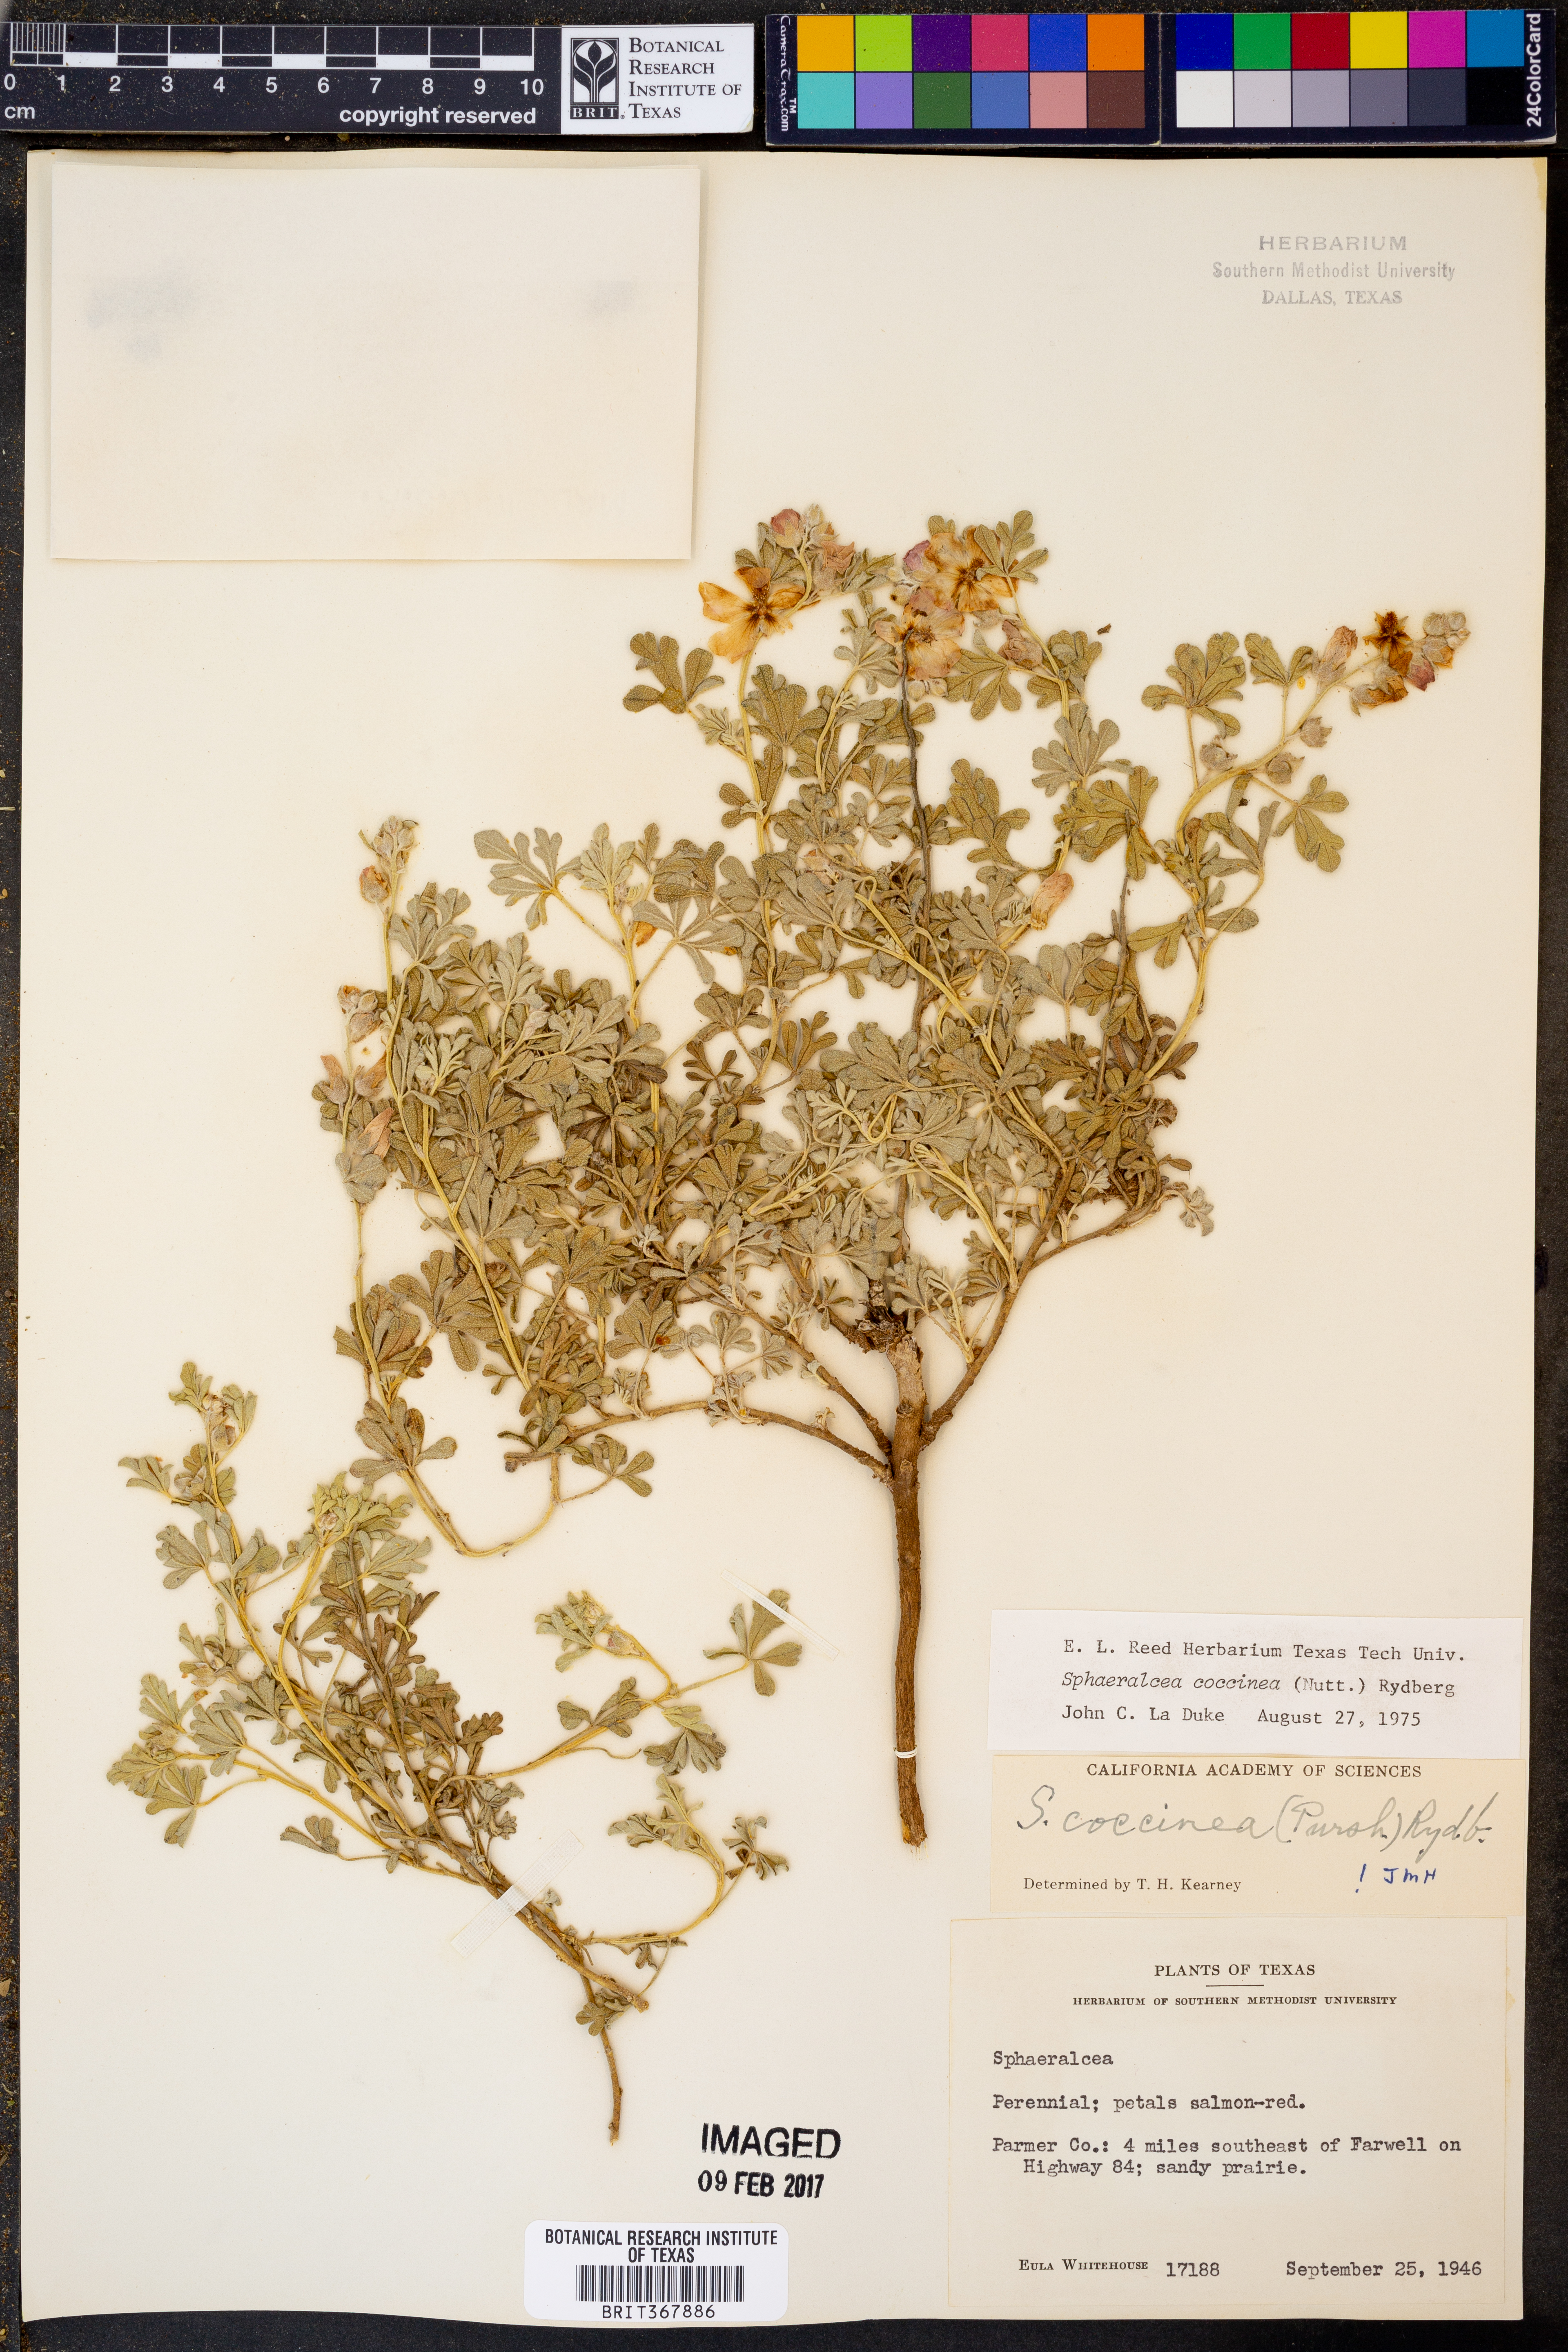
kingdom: Plantae
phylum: Tracheophyta
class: Magnoliopsida
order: Malvales
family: Malvaceae
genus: Sphaeralcea
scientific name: Sphaeralcea coccinea
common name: Moss-rose
